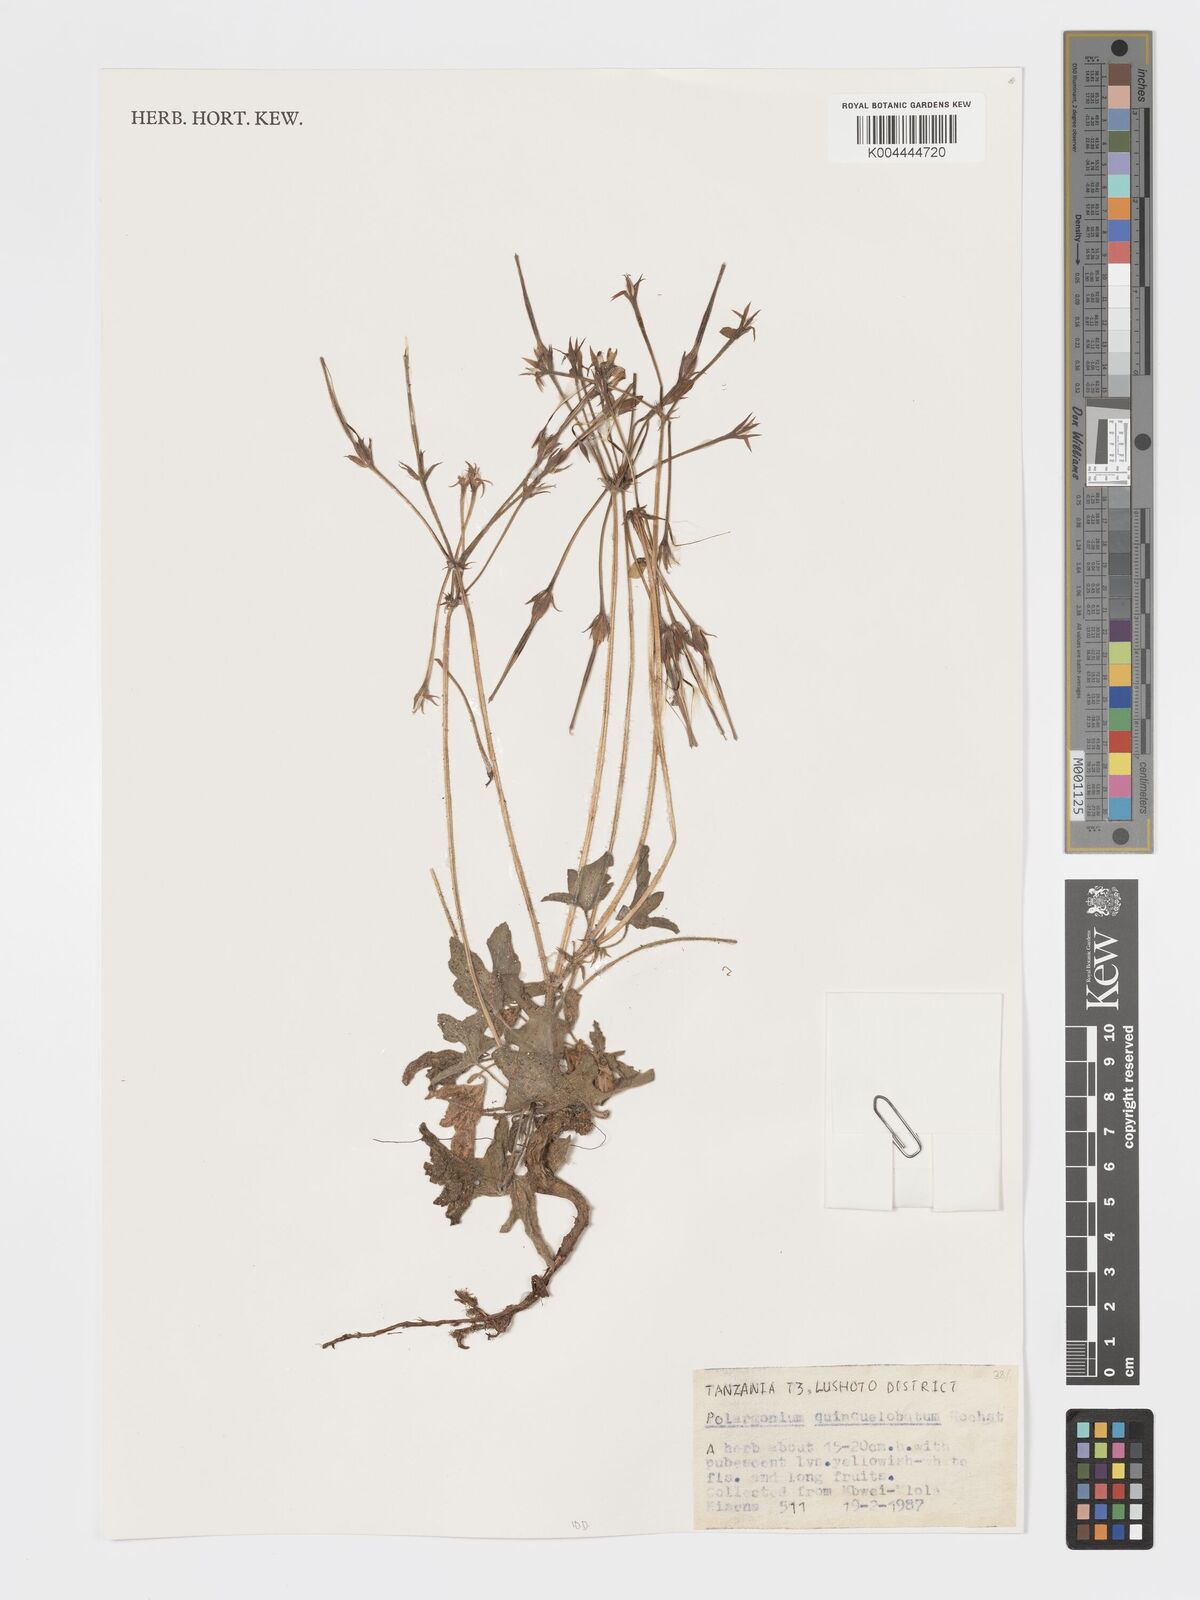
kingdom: Plantae
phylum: Tracheophyta
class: Magnoliopsida
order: Geraniales
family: Geraniaceae
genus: Pelargonium
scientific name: Pelargonium quinquelobatum
